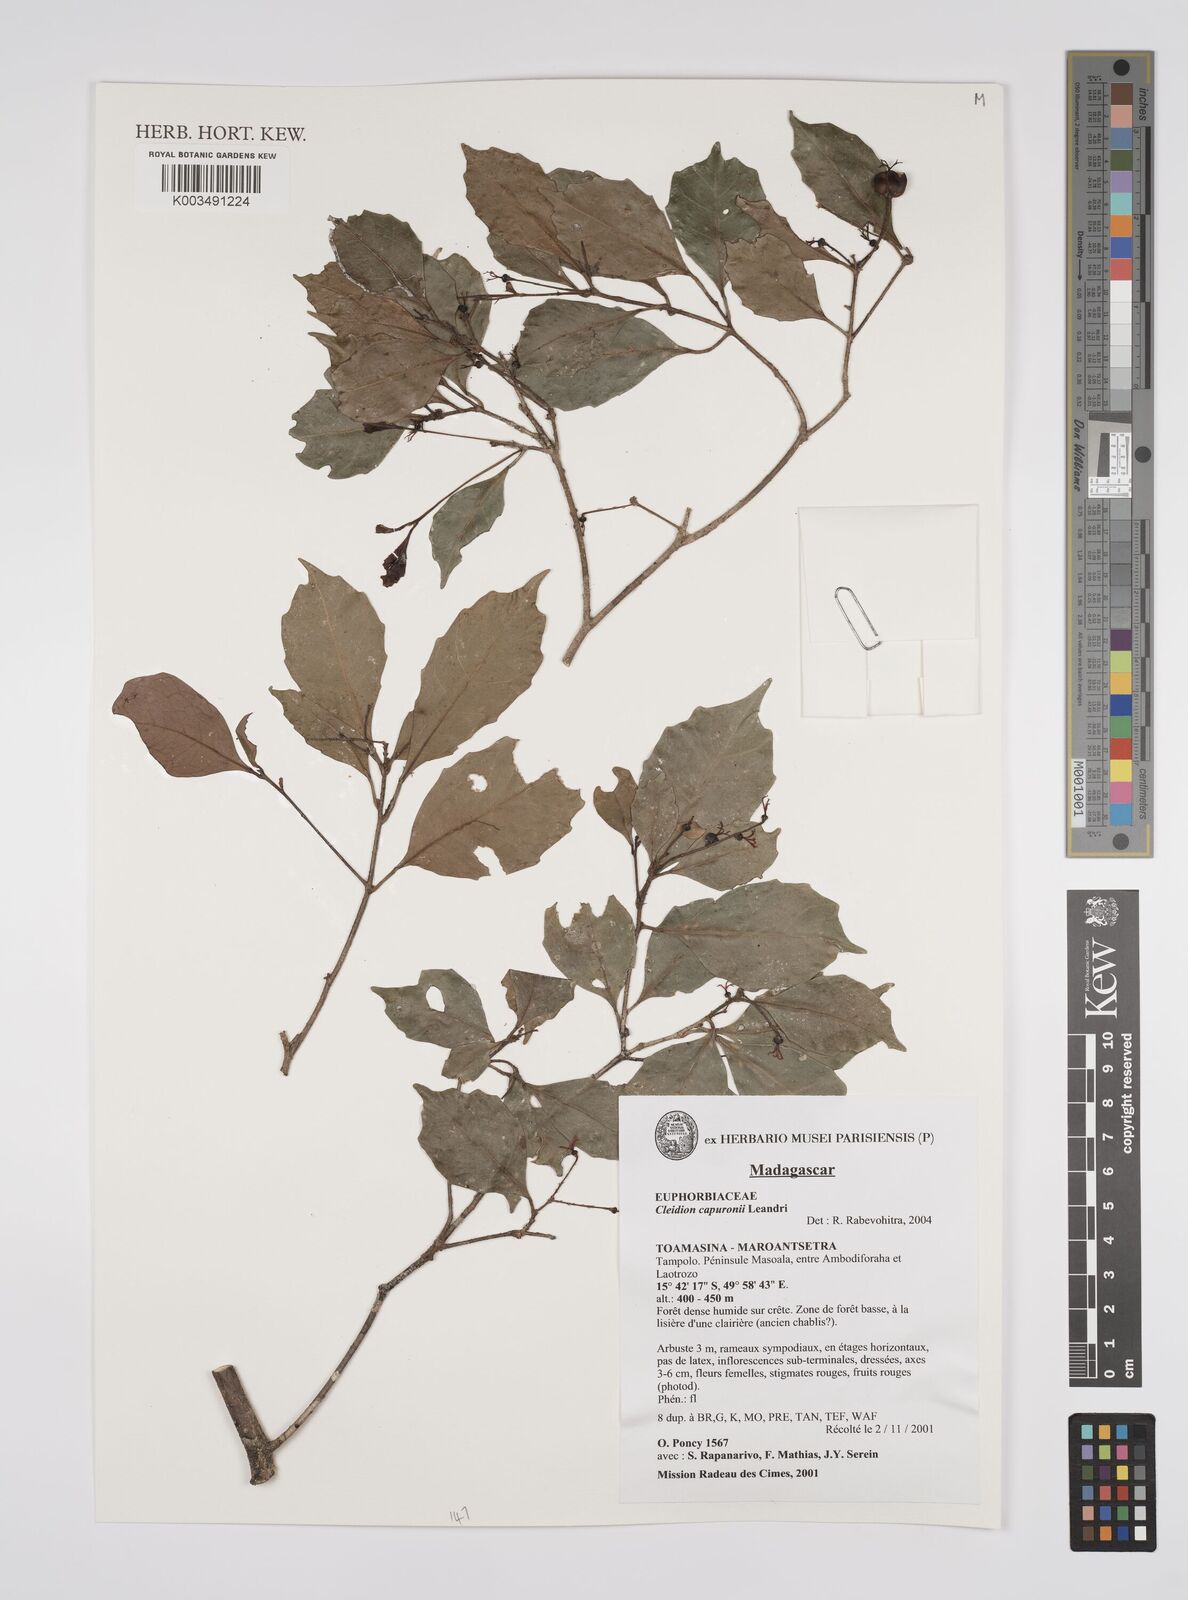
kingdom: Plantae
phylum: Tracheophyta
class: Magnoliopsida
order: Malpighiales
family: Euphorbiaceae
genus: Cleidion
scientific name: Cleidion capuronii
